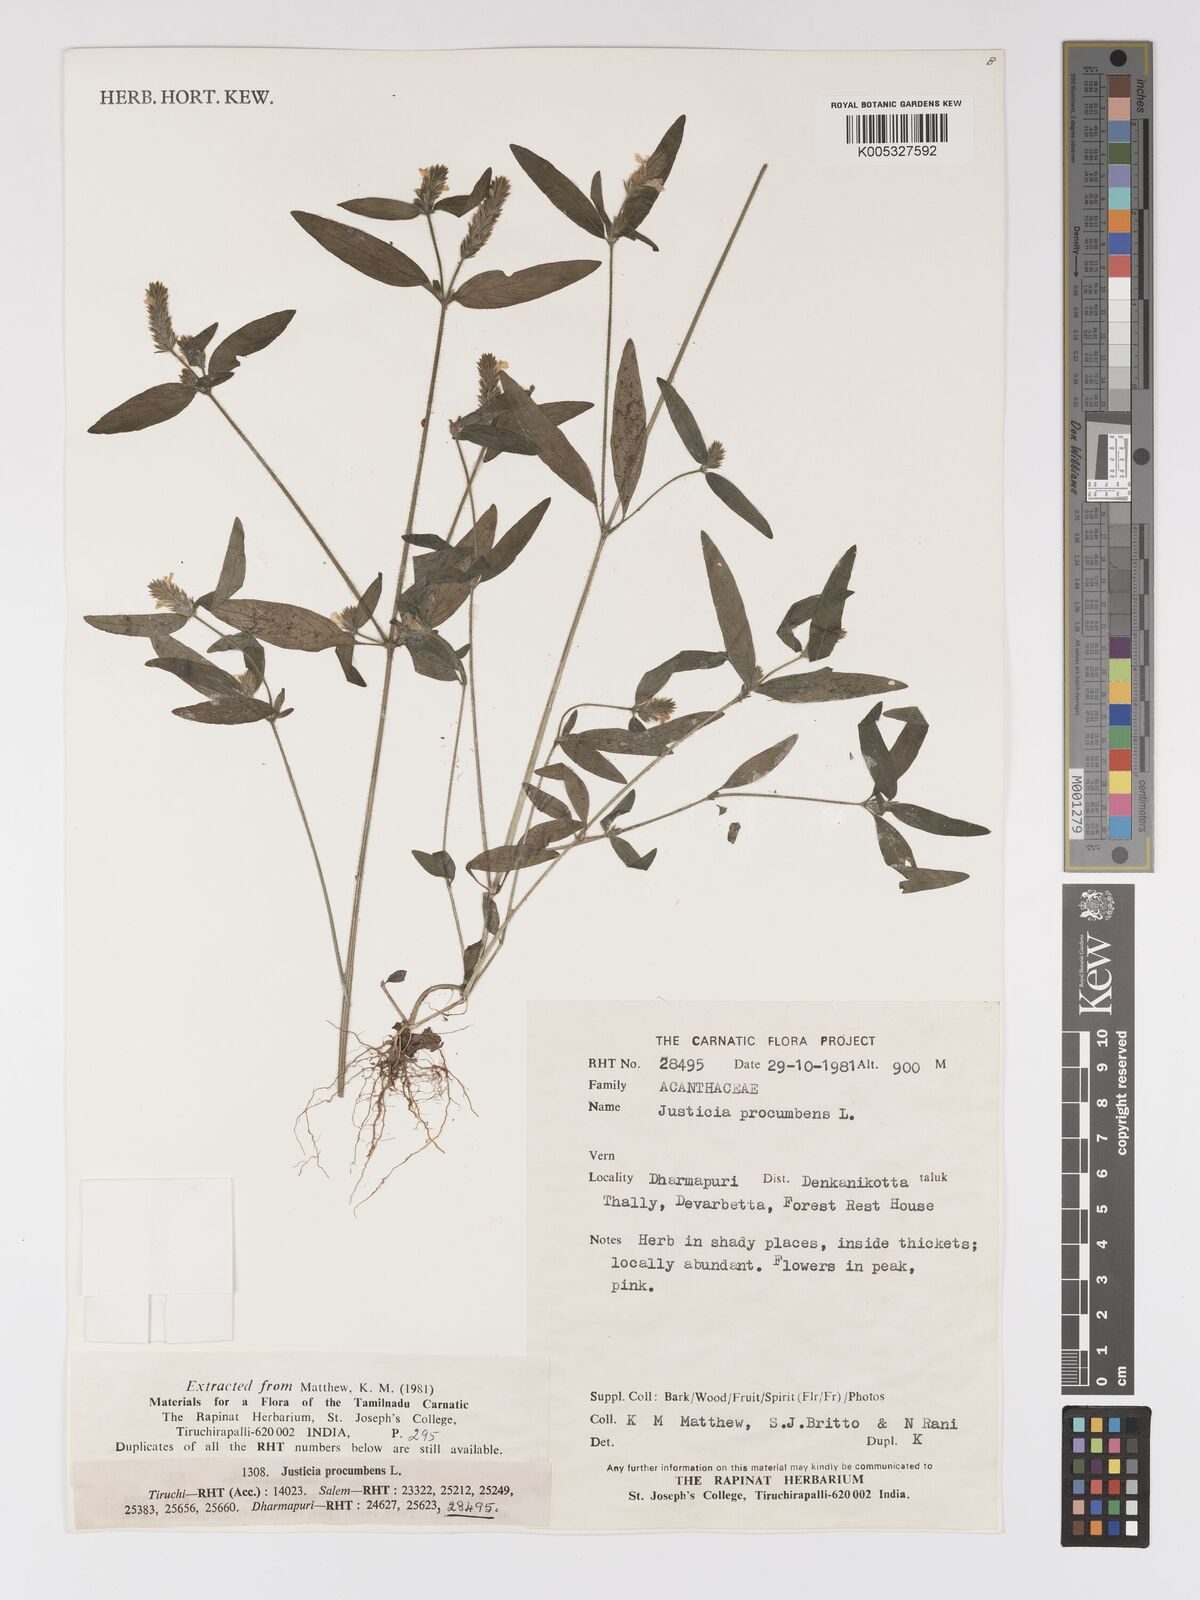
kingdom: Plantae
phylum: Tracheophyta
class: Magnoliopsida
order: Lamiales
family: Acanthaceae
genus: Rostellularia
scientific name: Rostellularia procumbens
